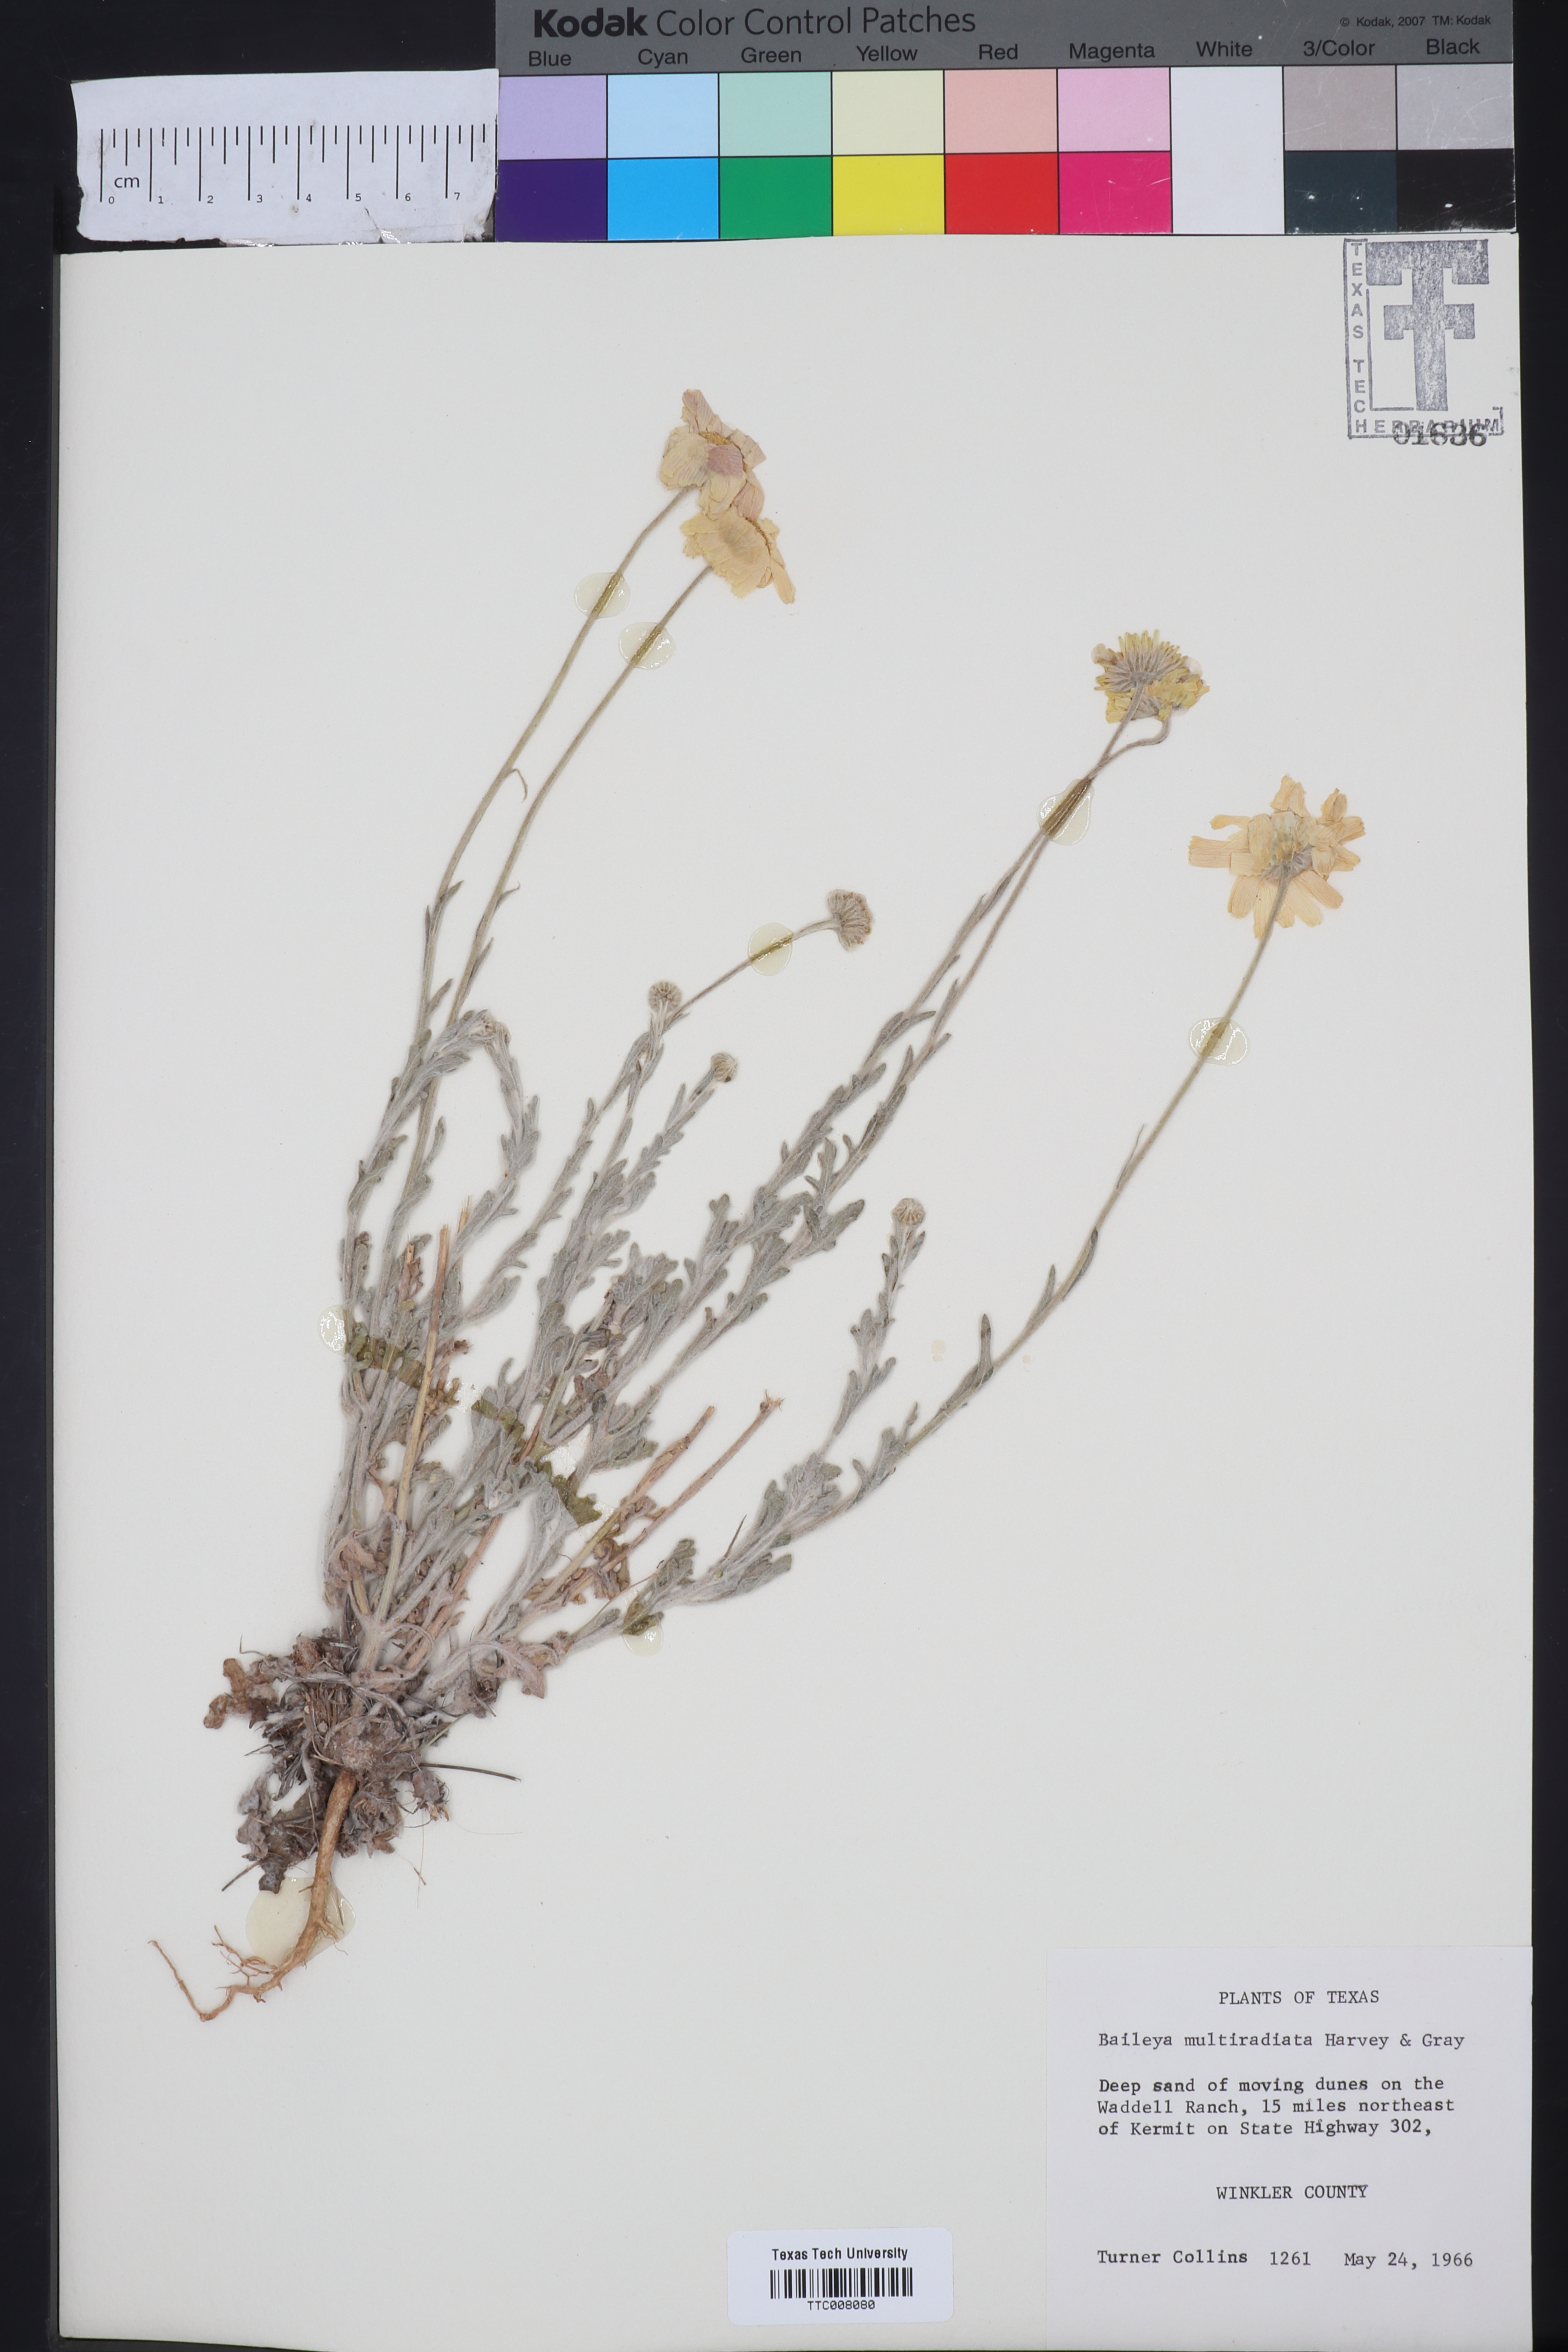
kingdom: Plantae
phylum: Tracheophyta
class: Magnoliopsida
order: Asterales
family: Asteraceae
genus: Baileya
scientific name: Baileya multiradiata
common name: Desert-marigold
